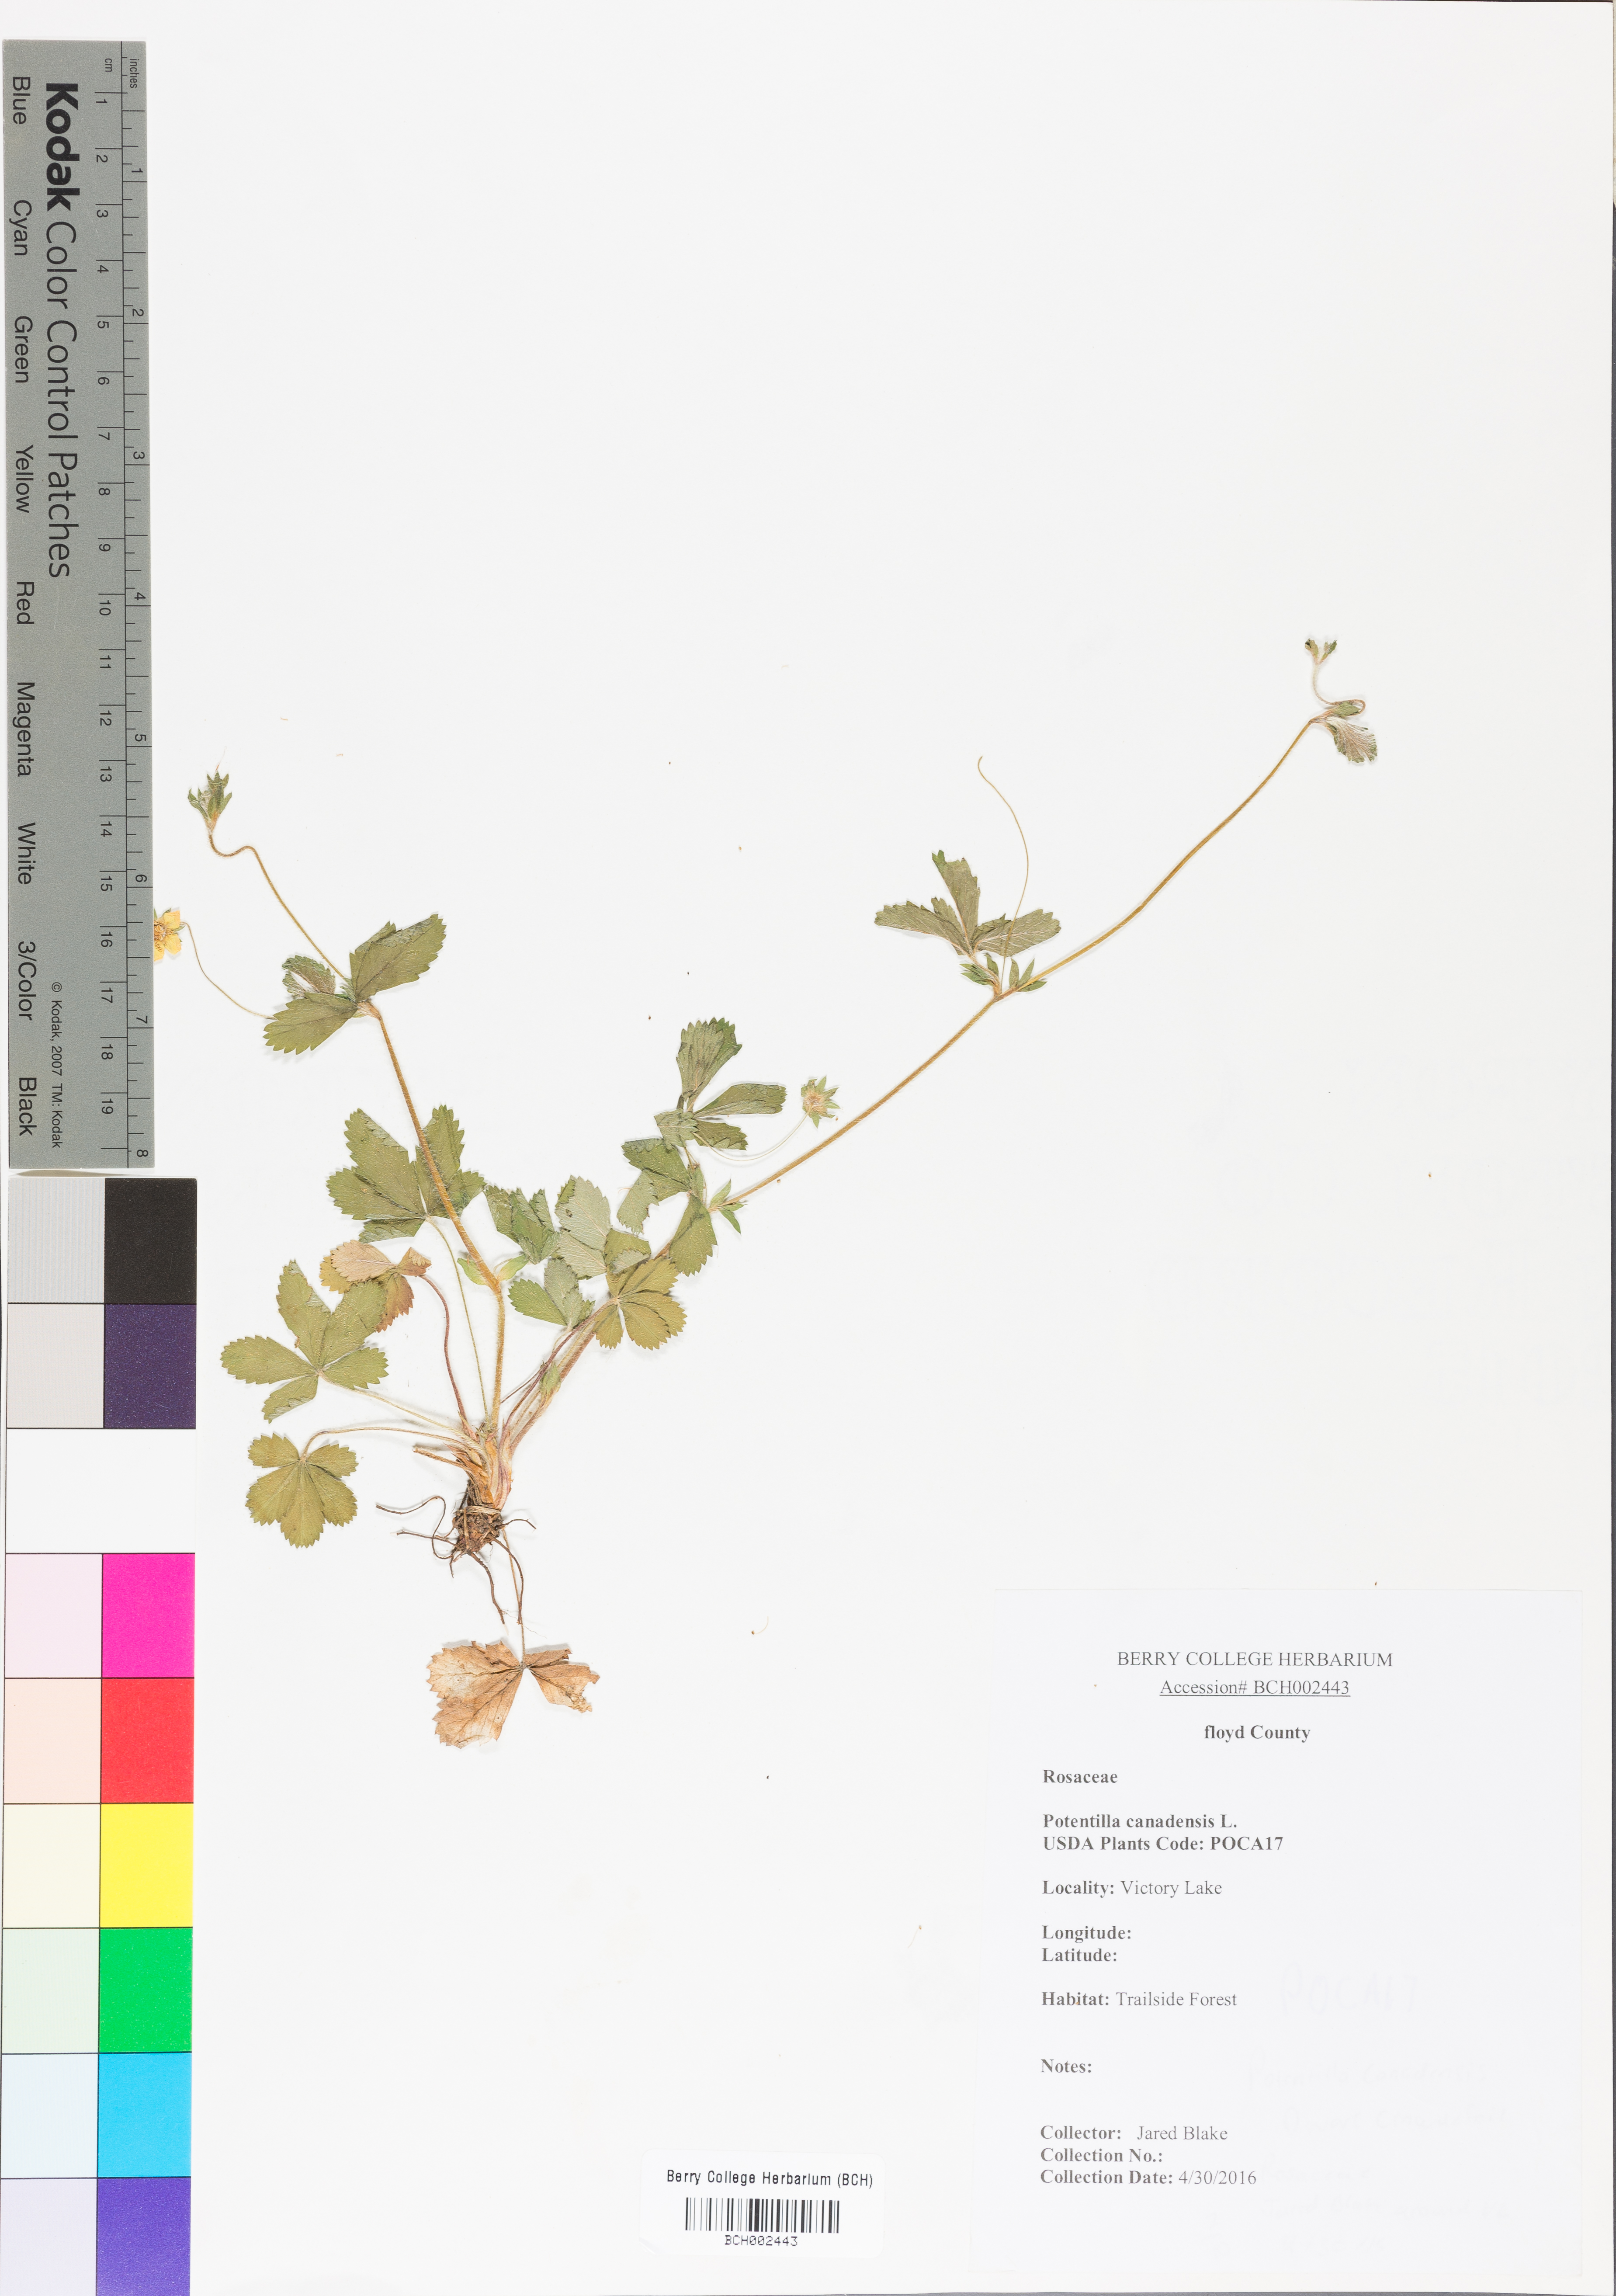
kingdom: Plantae
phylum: Tracheophyta
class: Magnoliopsida
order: Rosales
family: Rosaceae
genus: Potentilla
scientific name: Potentilla canadensis
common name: Canada cinquefoil
